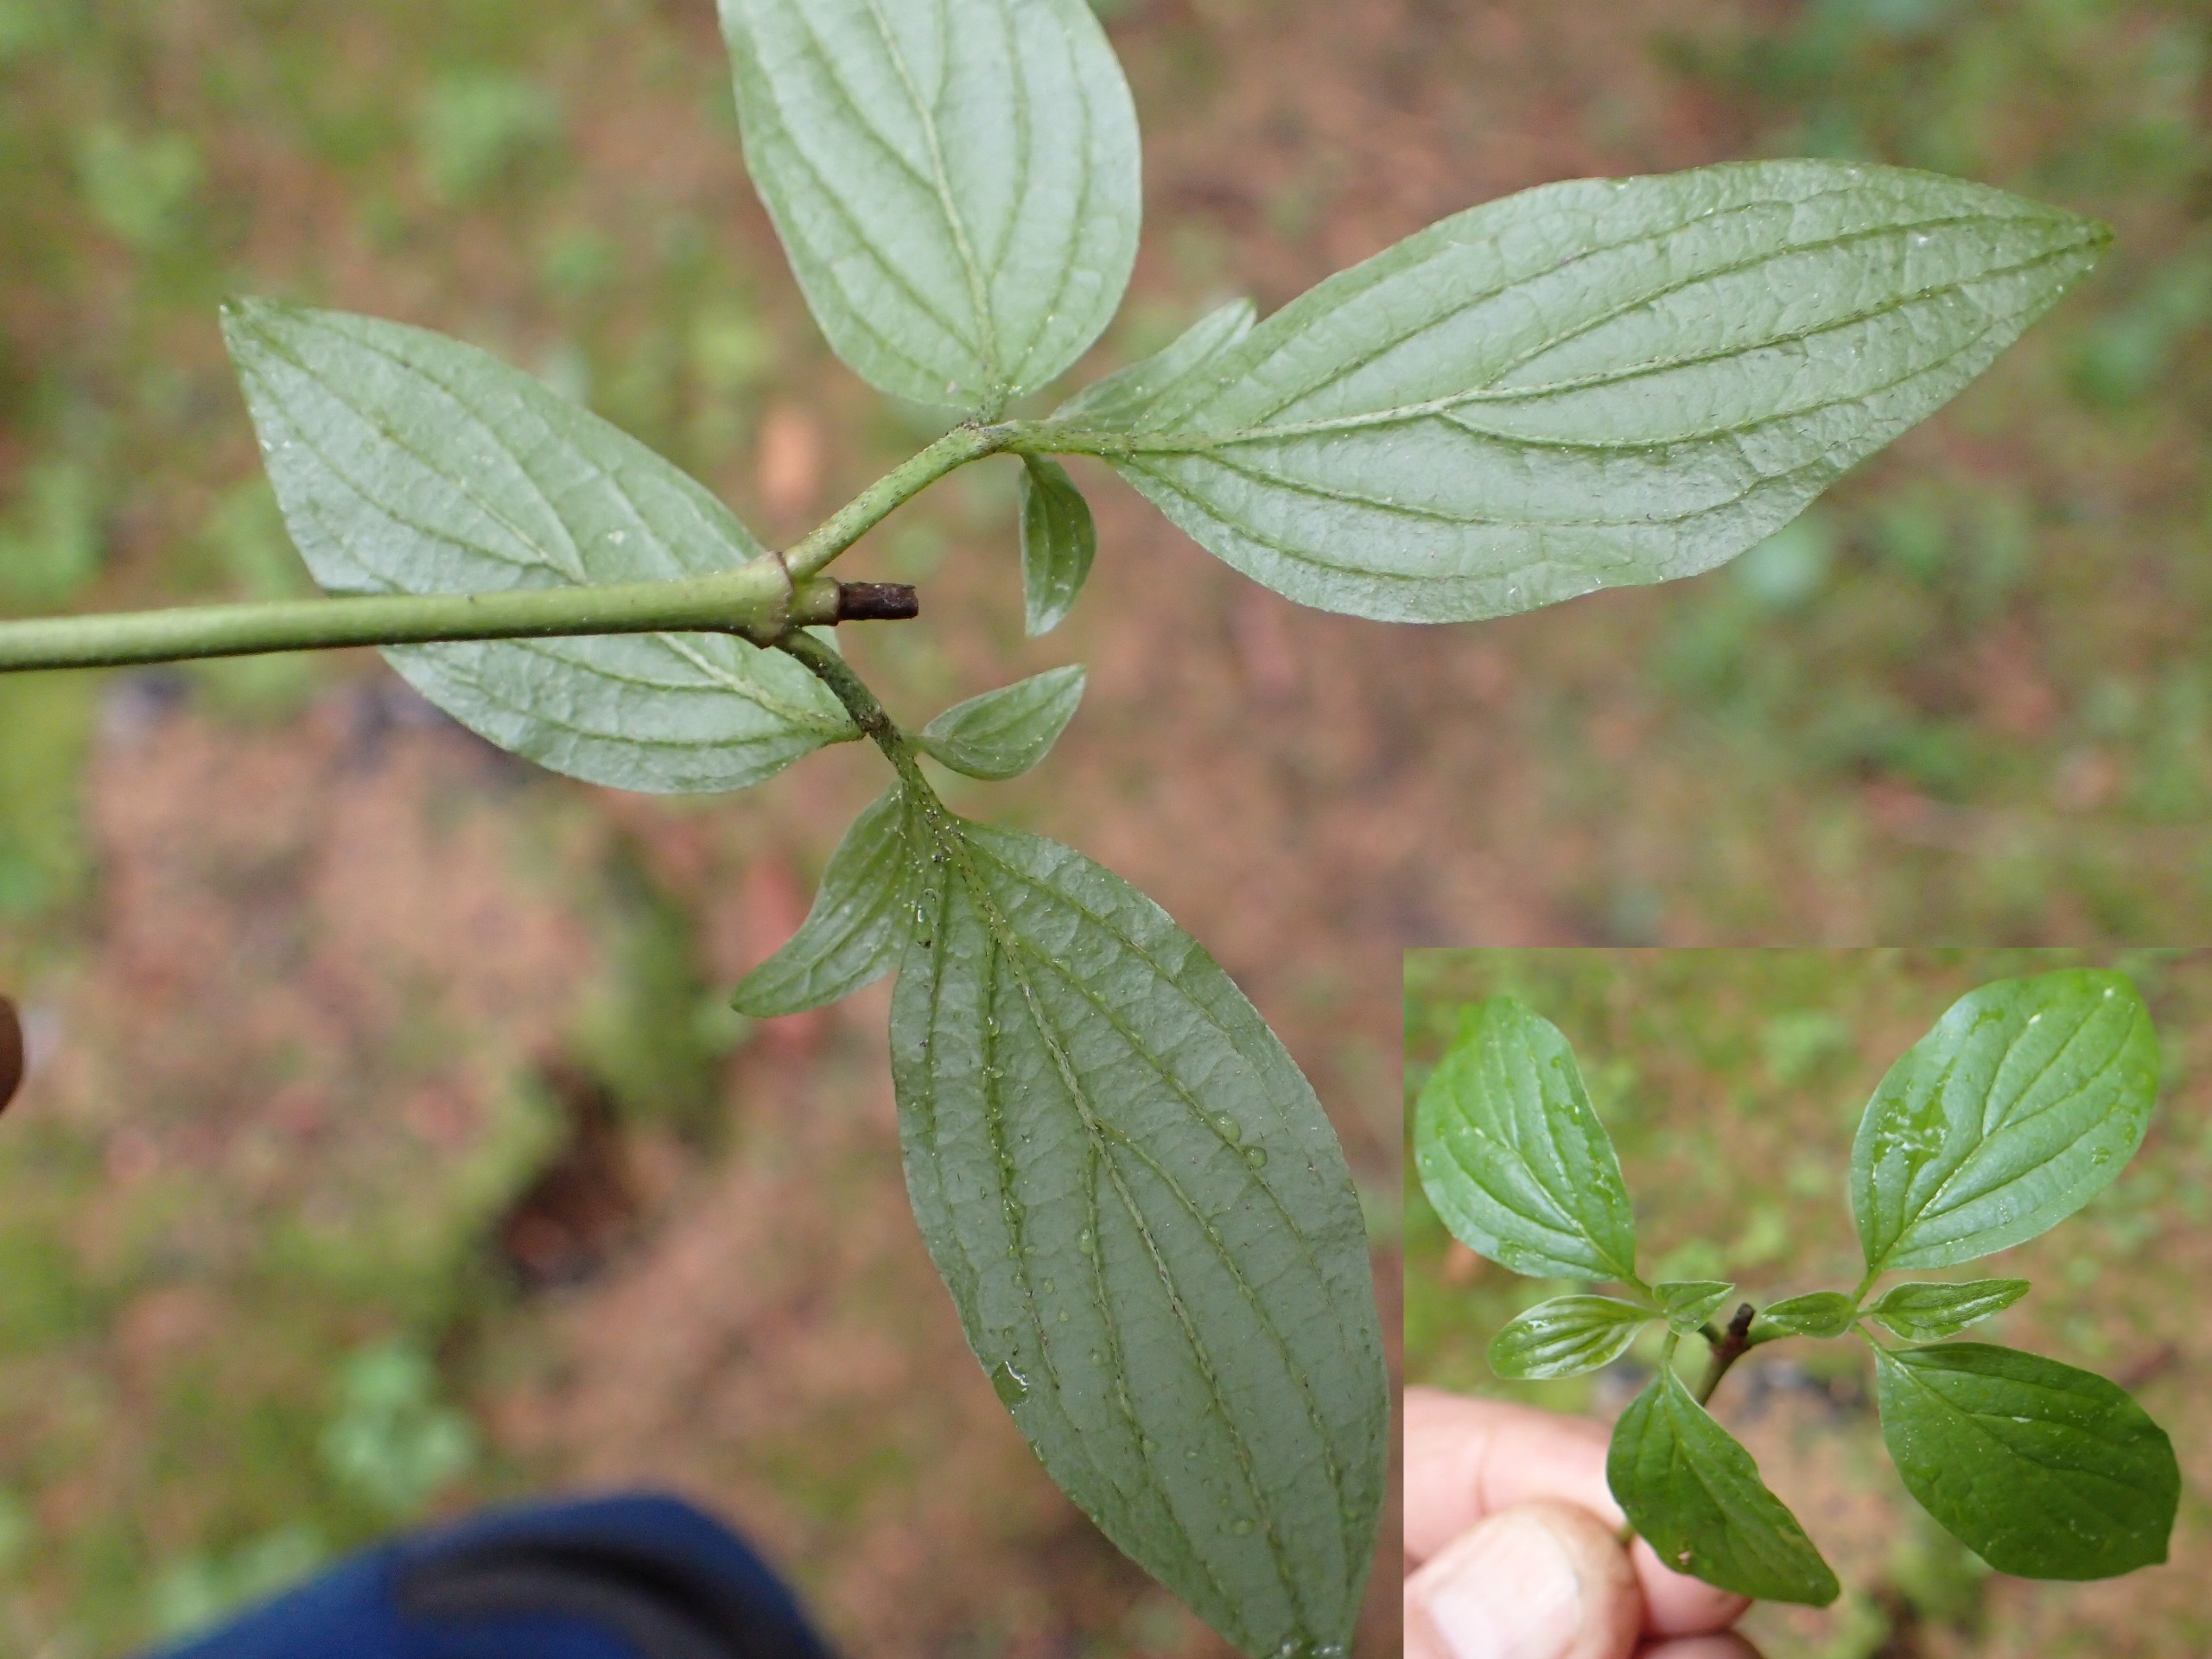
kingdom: Plantae
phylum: Tracheophyta
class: Magnoliopsida
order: Cornales
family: Cornaceae
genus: Cornus
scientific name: Cornus sanguinea
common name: Rød kornel
